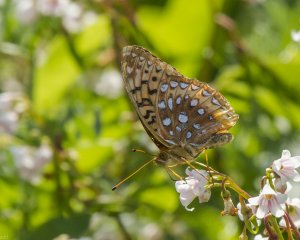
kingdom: Animalia
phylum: Arthropoda
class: Insecta
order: Lepidoptera
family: Nymphalidae
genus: Speyeria
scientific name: Speyeria cybele
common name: Great Spangled Fritillary
